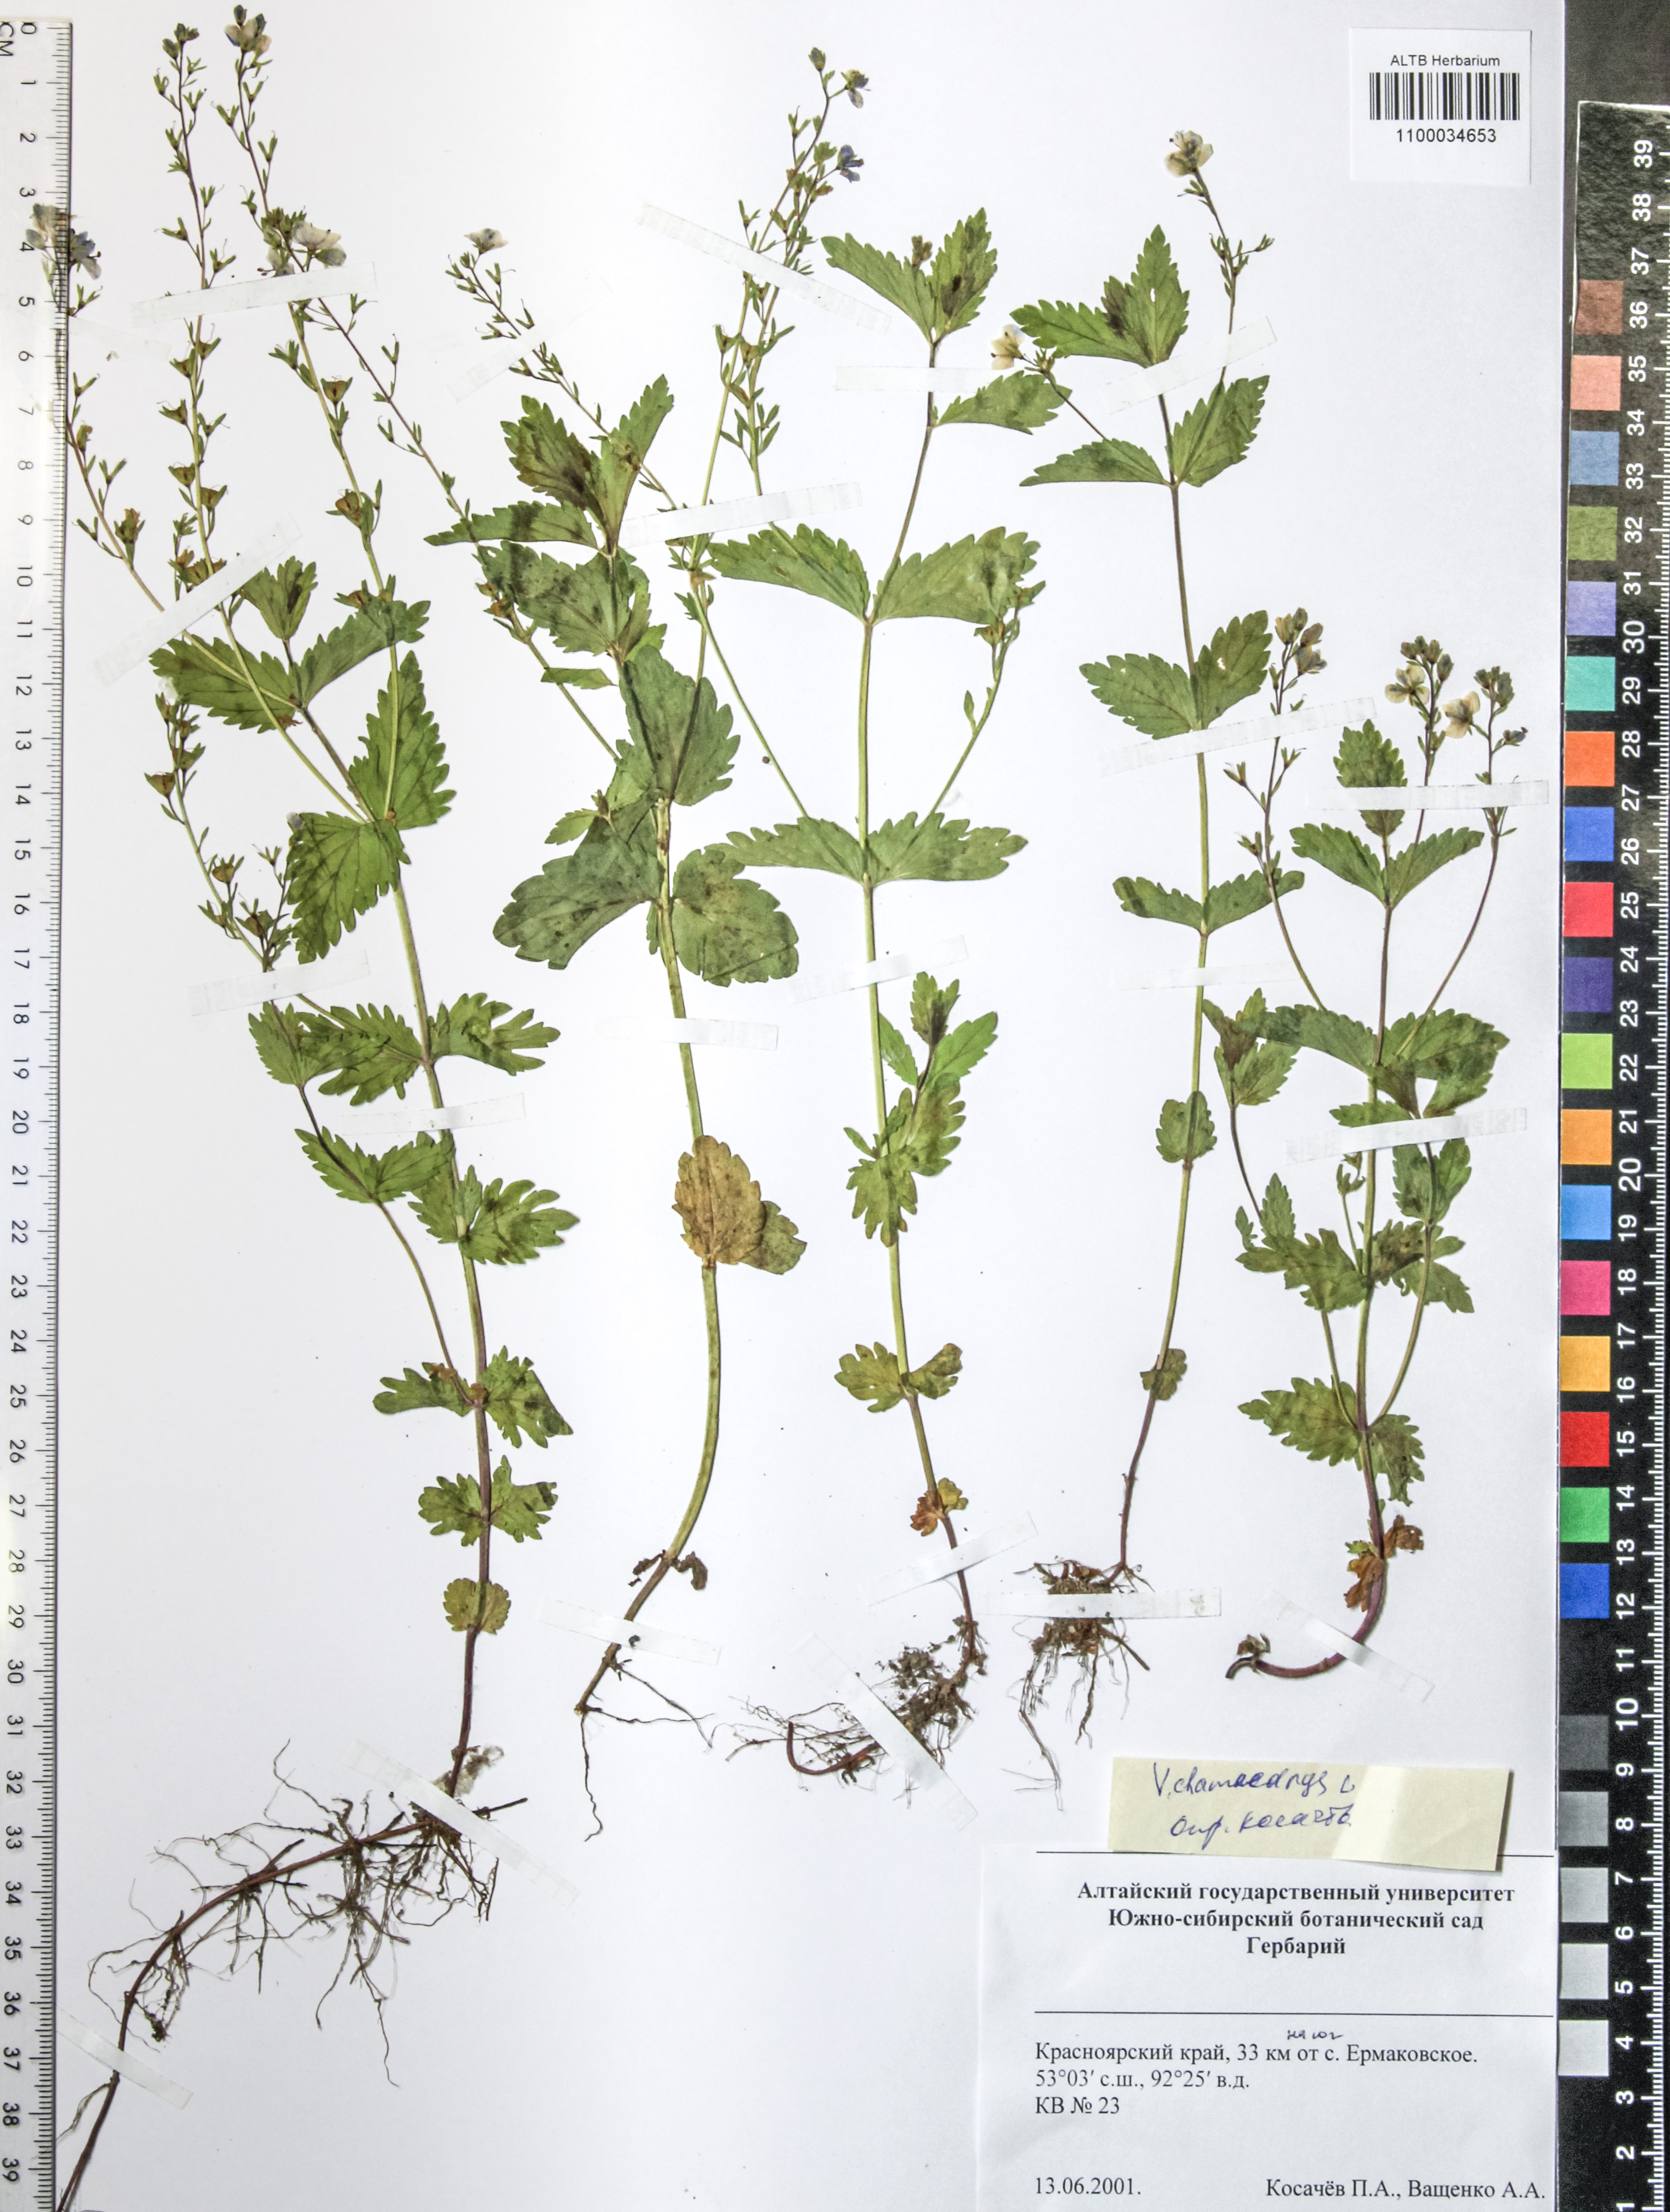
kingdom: Plantae
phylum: Tracheophyta
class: Magnoliopsida
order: Lamiales
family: Plantaginaceae
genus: Veronica
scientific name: Veronica chamaedrys
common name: Germander speedwell
